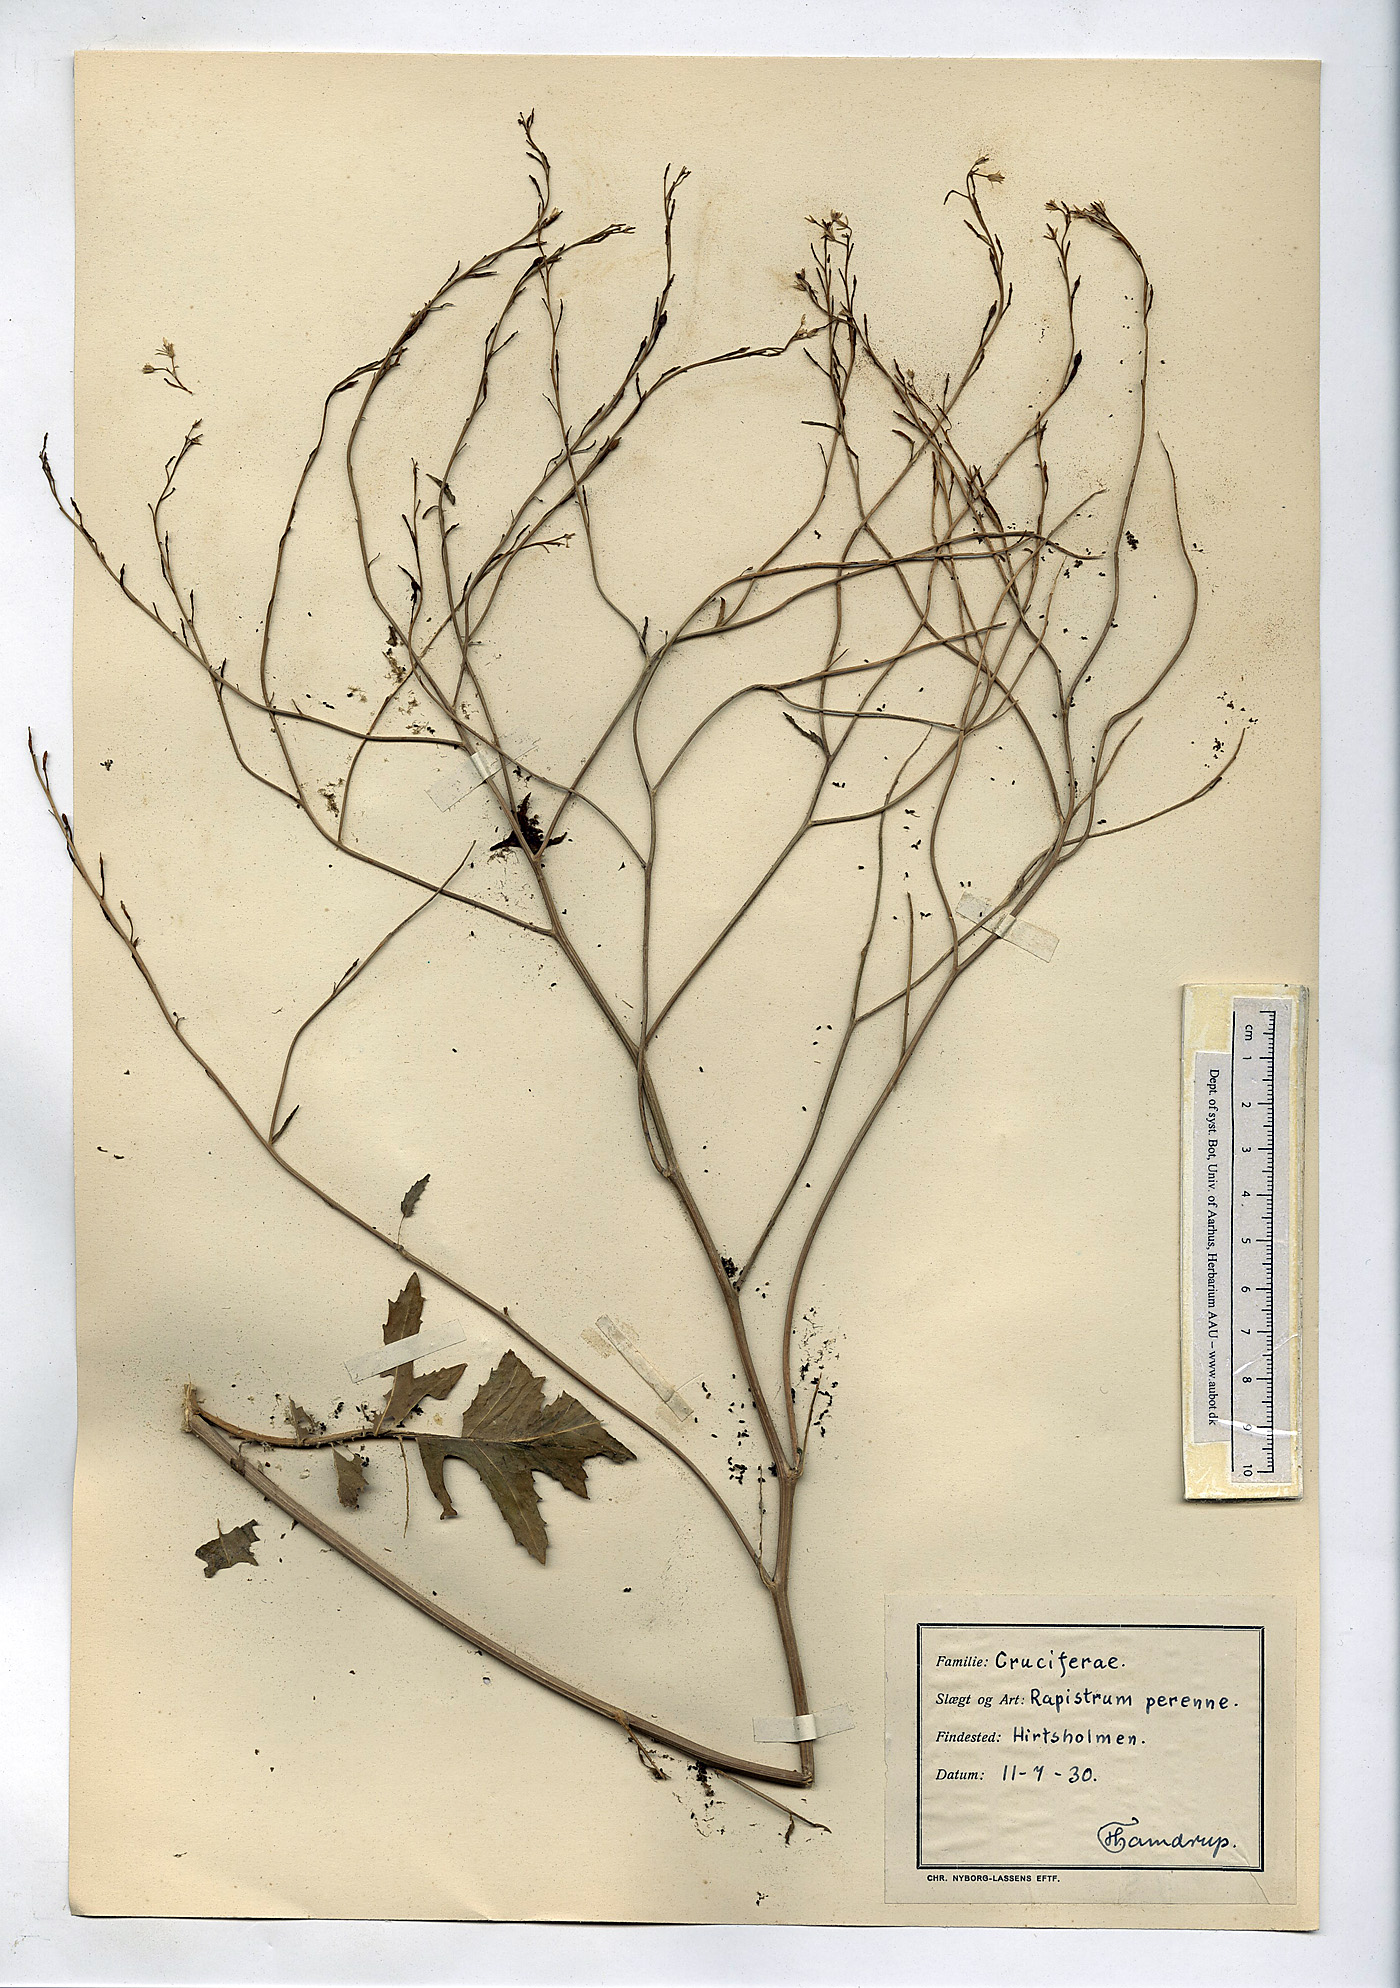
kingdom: Plantae
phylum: Tracheophyta
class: Magnoliopsida
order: Brassicales
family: Brassicaceae
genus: Rapistrum
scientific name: Rapistrum perenne
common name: Steppe cabbage
